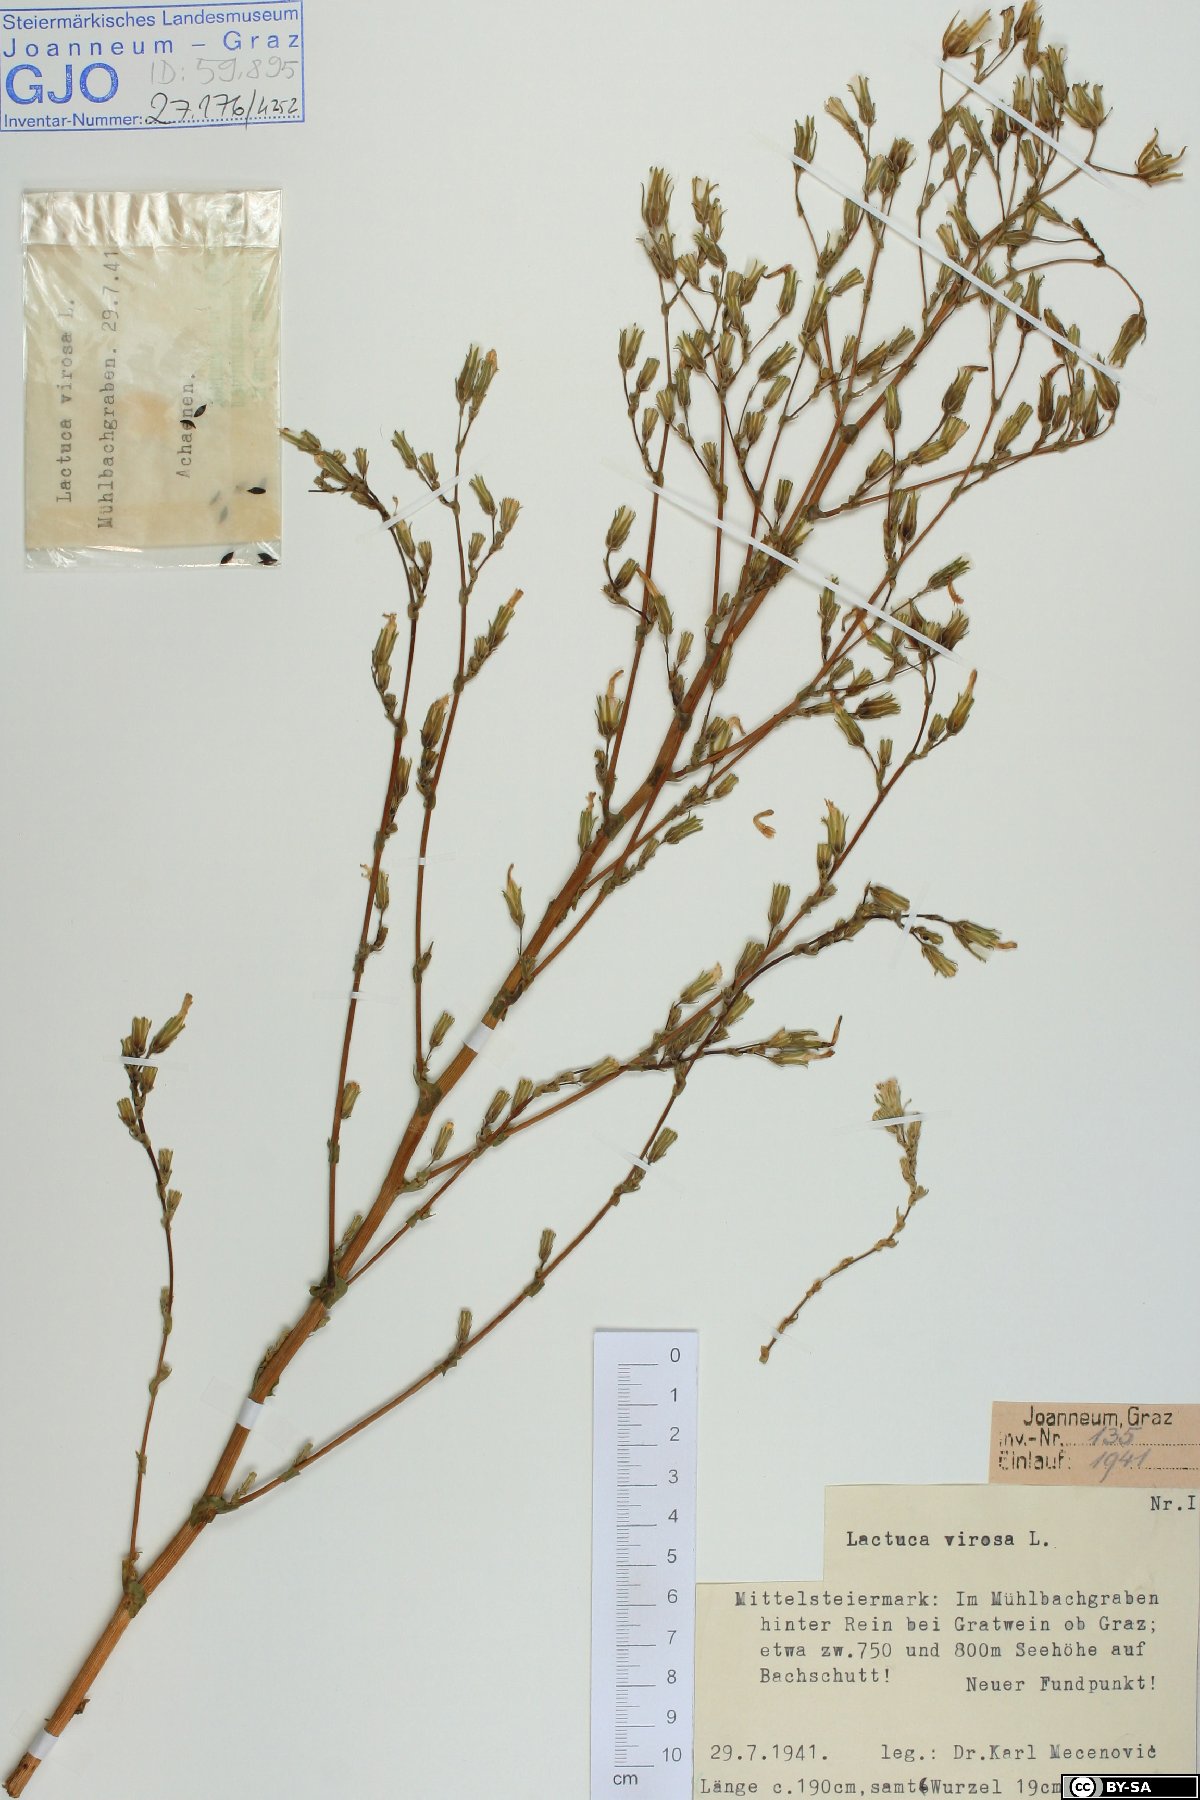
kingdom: Plantae
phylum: Tracheophyta
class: Magnoliopsida
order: Asterales
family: Asteraceae
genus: Lactuca
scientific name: Lactuca virosa
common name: Great lettuce
